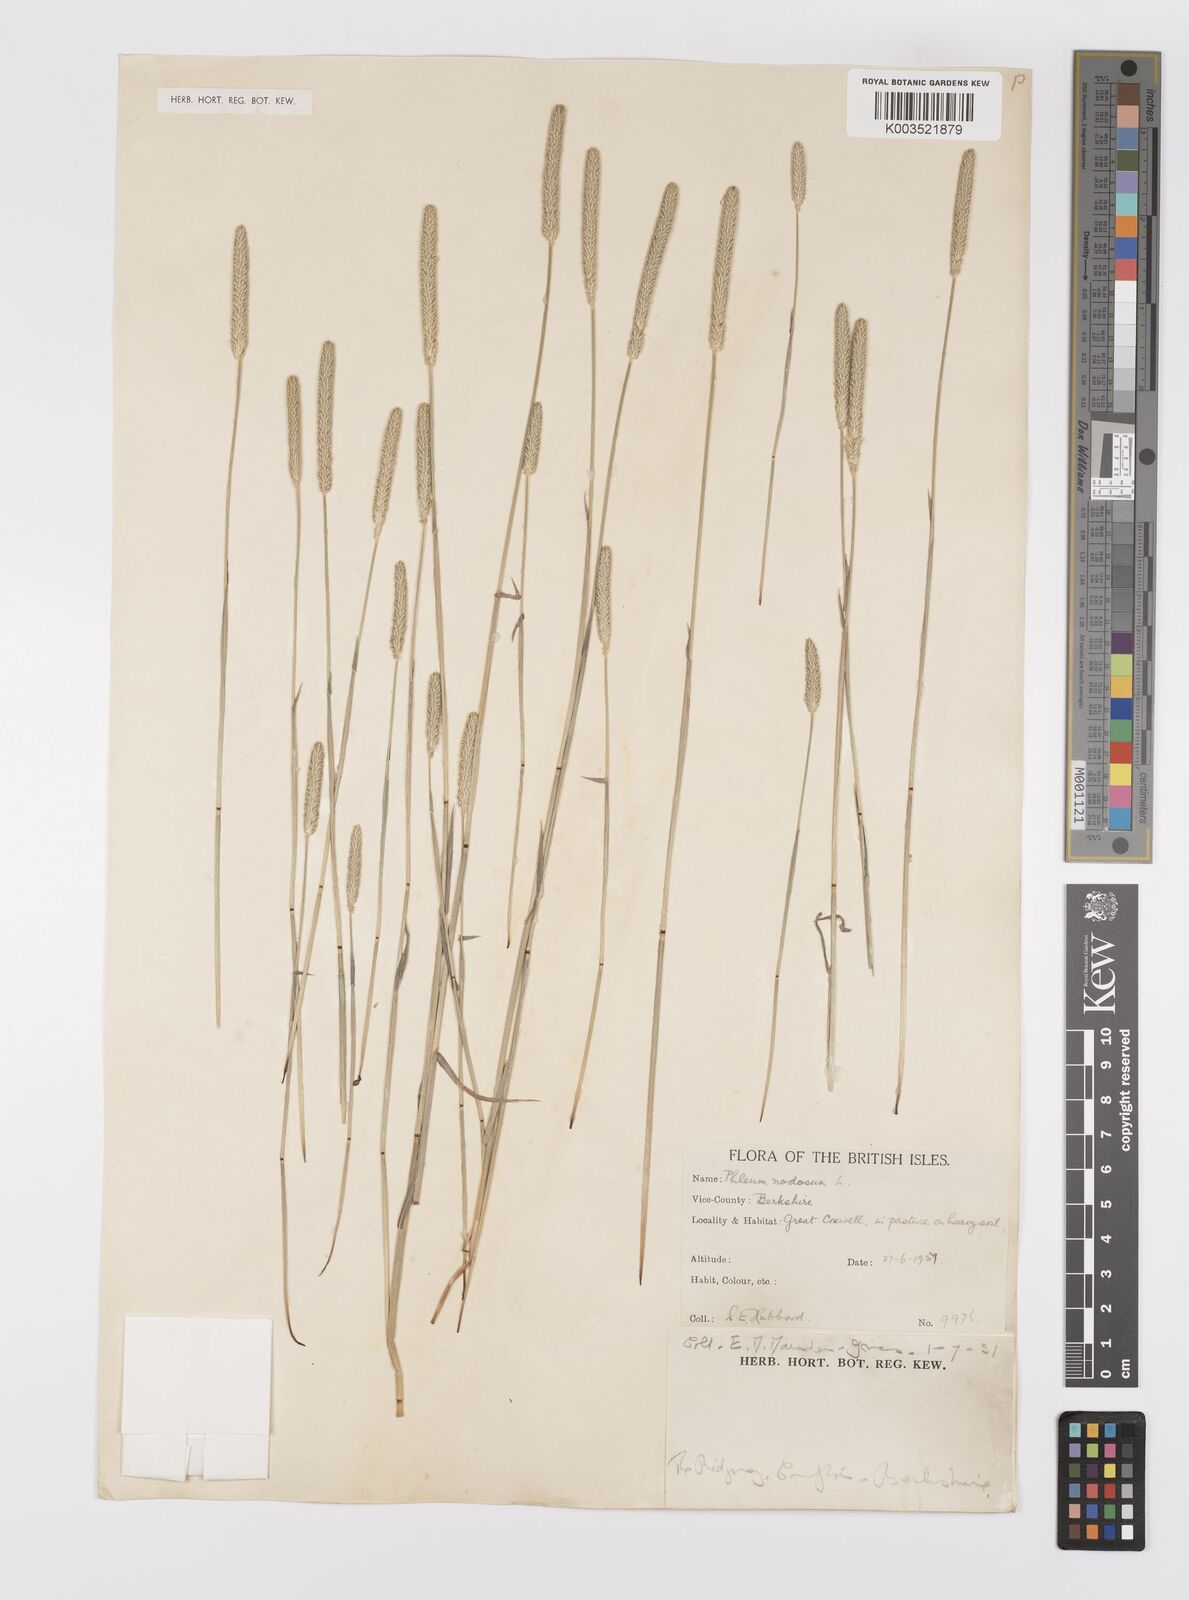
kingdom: Plantae
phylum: Tracheophyta
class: Liliopsida
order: Poales
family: Poaceae
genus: Phleum
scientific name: Phleum bertolonii
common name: Smaller cat's-tail
